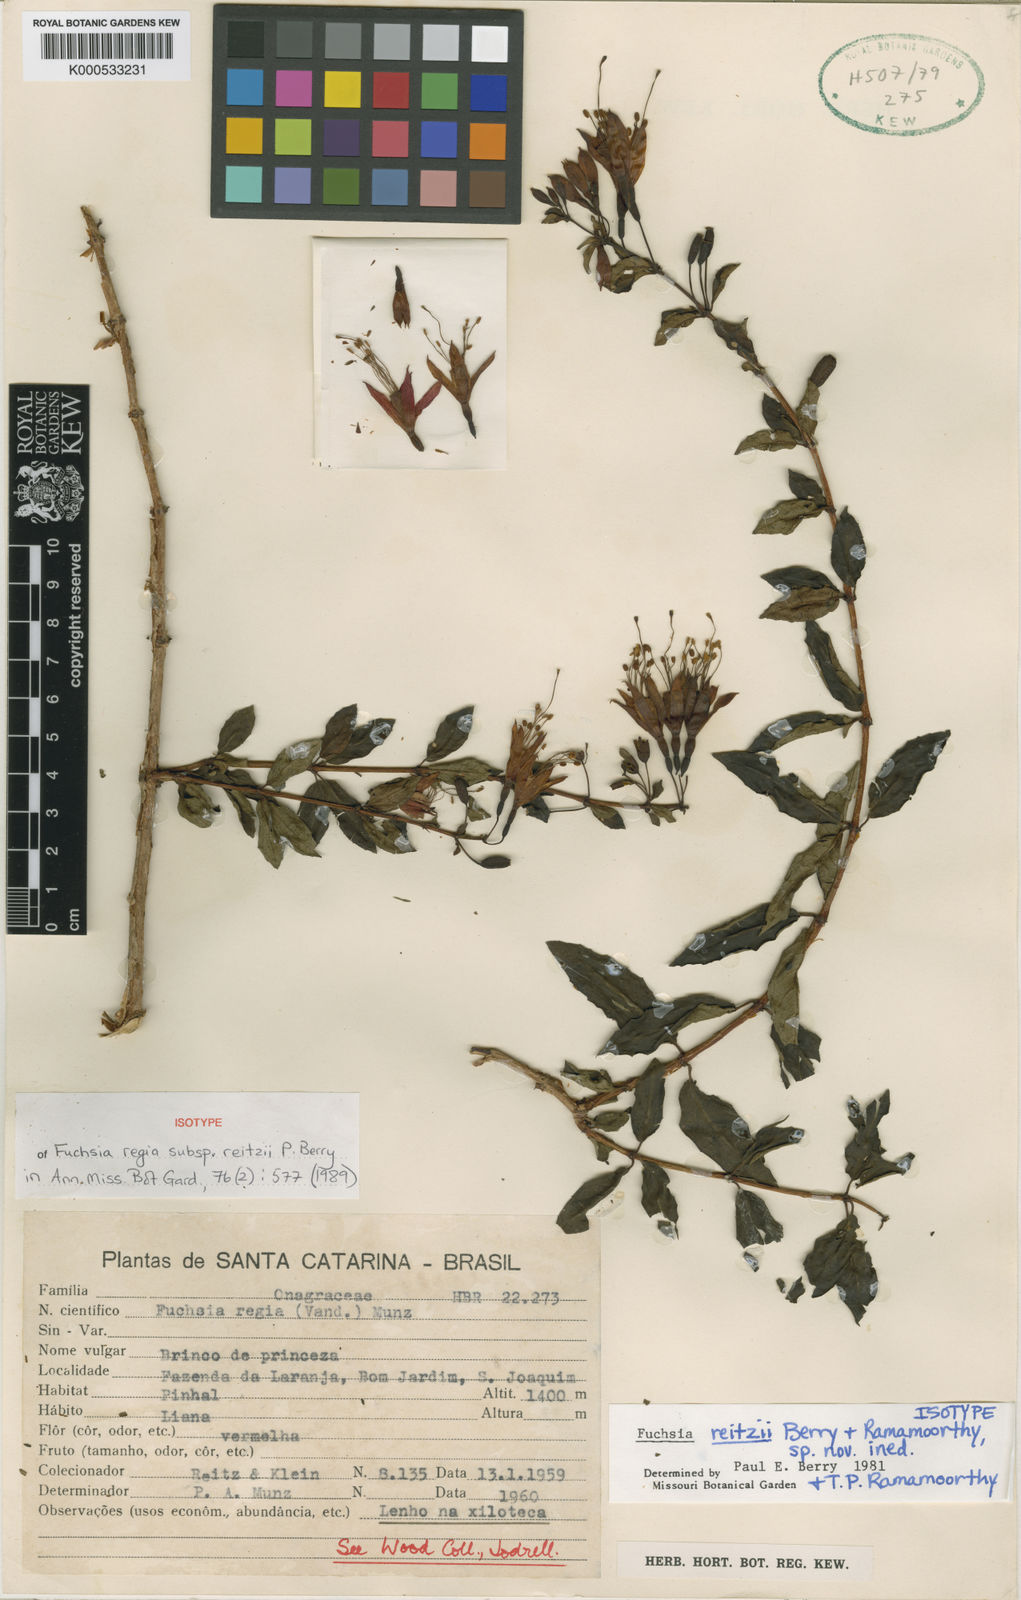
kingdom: Plantae
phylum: Tracheophyta
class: Magnoliopsida
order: Myrtales
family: Onagraceae
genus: Fuchsia
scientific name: Fuchsia regia
